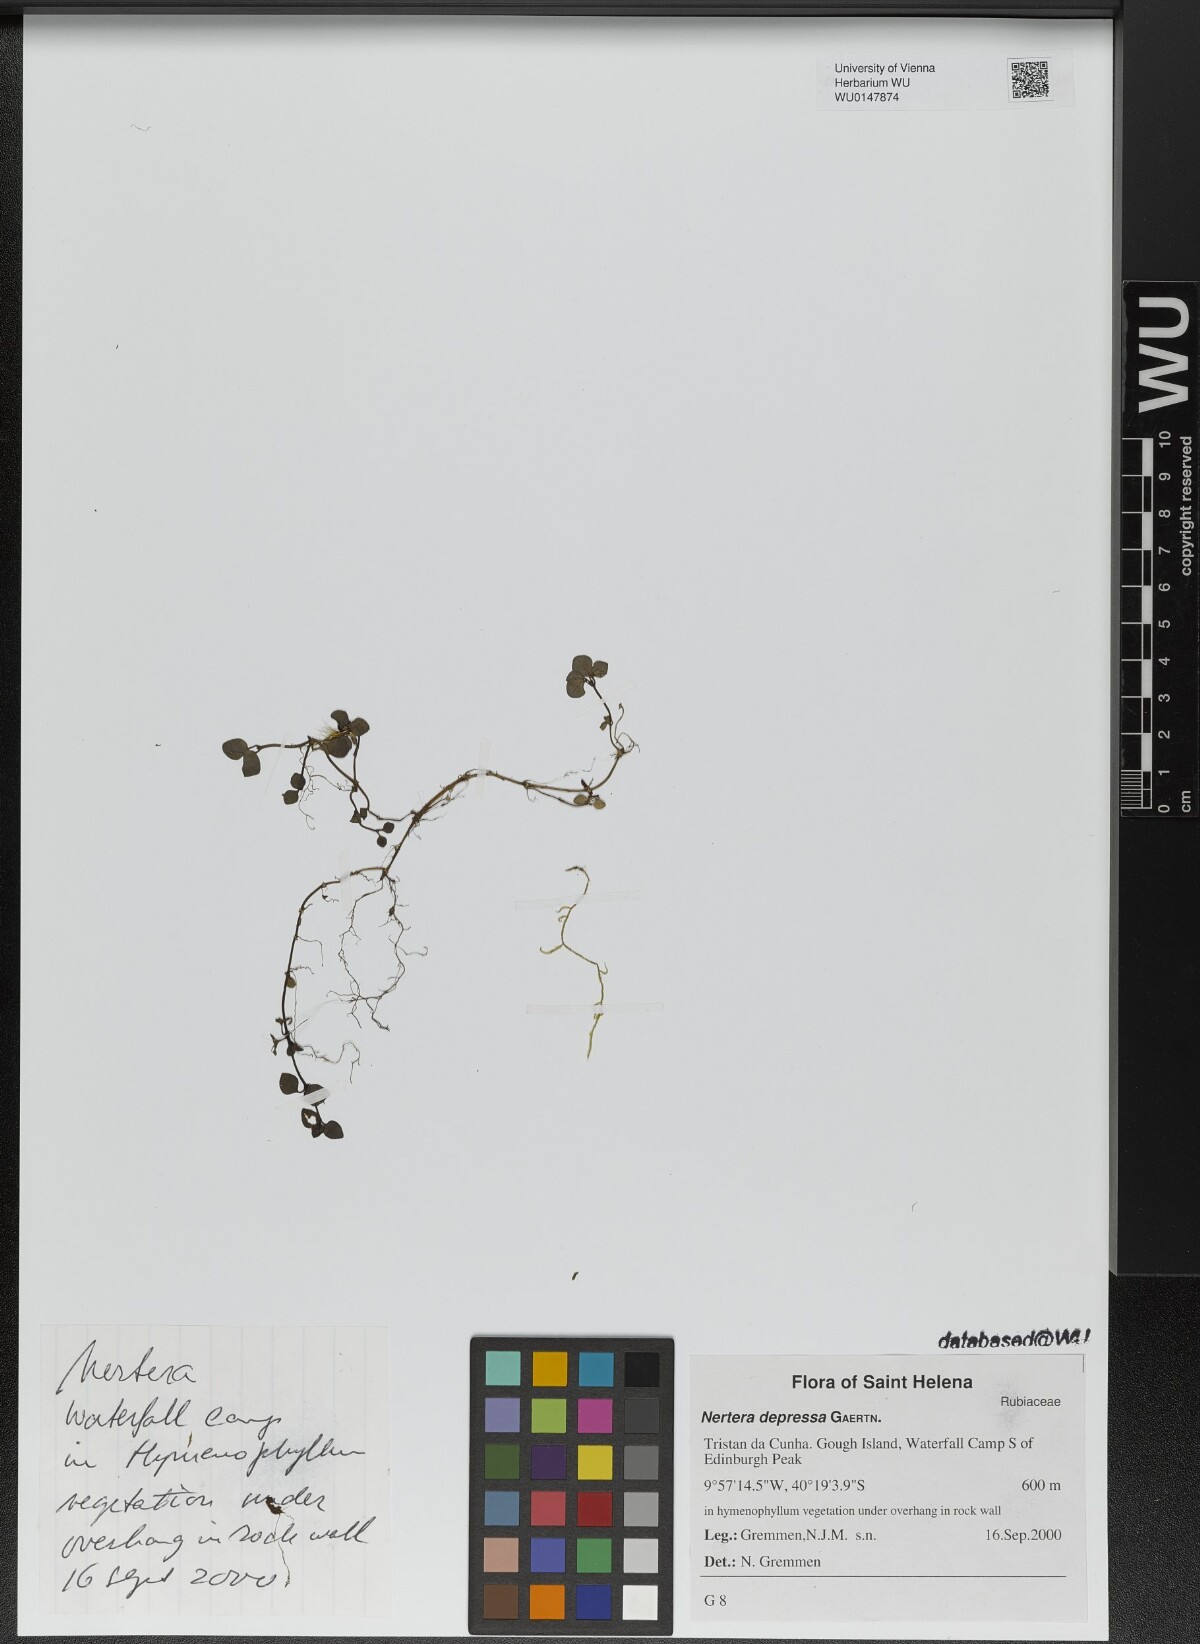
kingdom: Plantae
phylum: Tracheophyta
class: Magnoliopsida
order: Gentianales
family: Rubiaceae
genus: Nertera
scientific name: Nertera granadensis
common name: Beadplant
